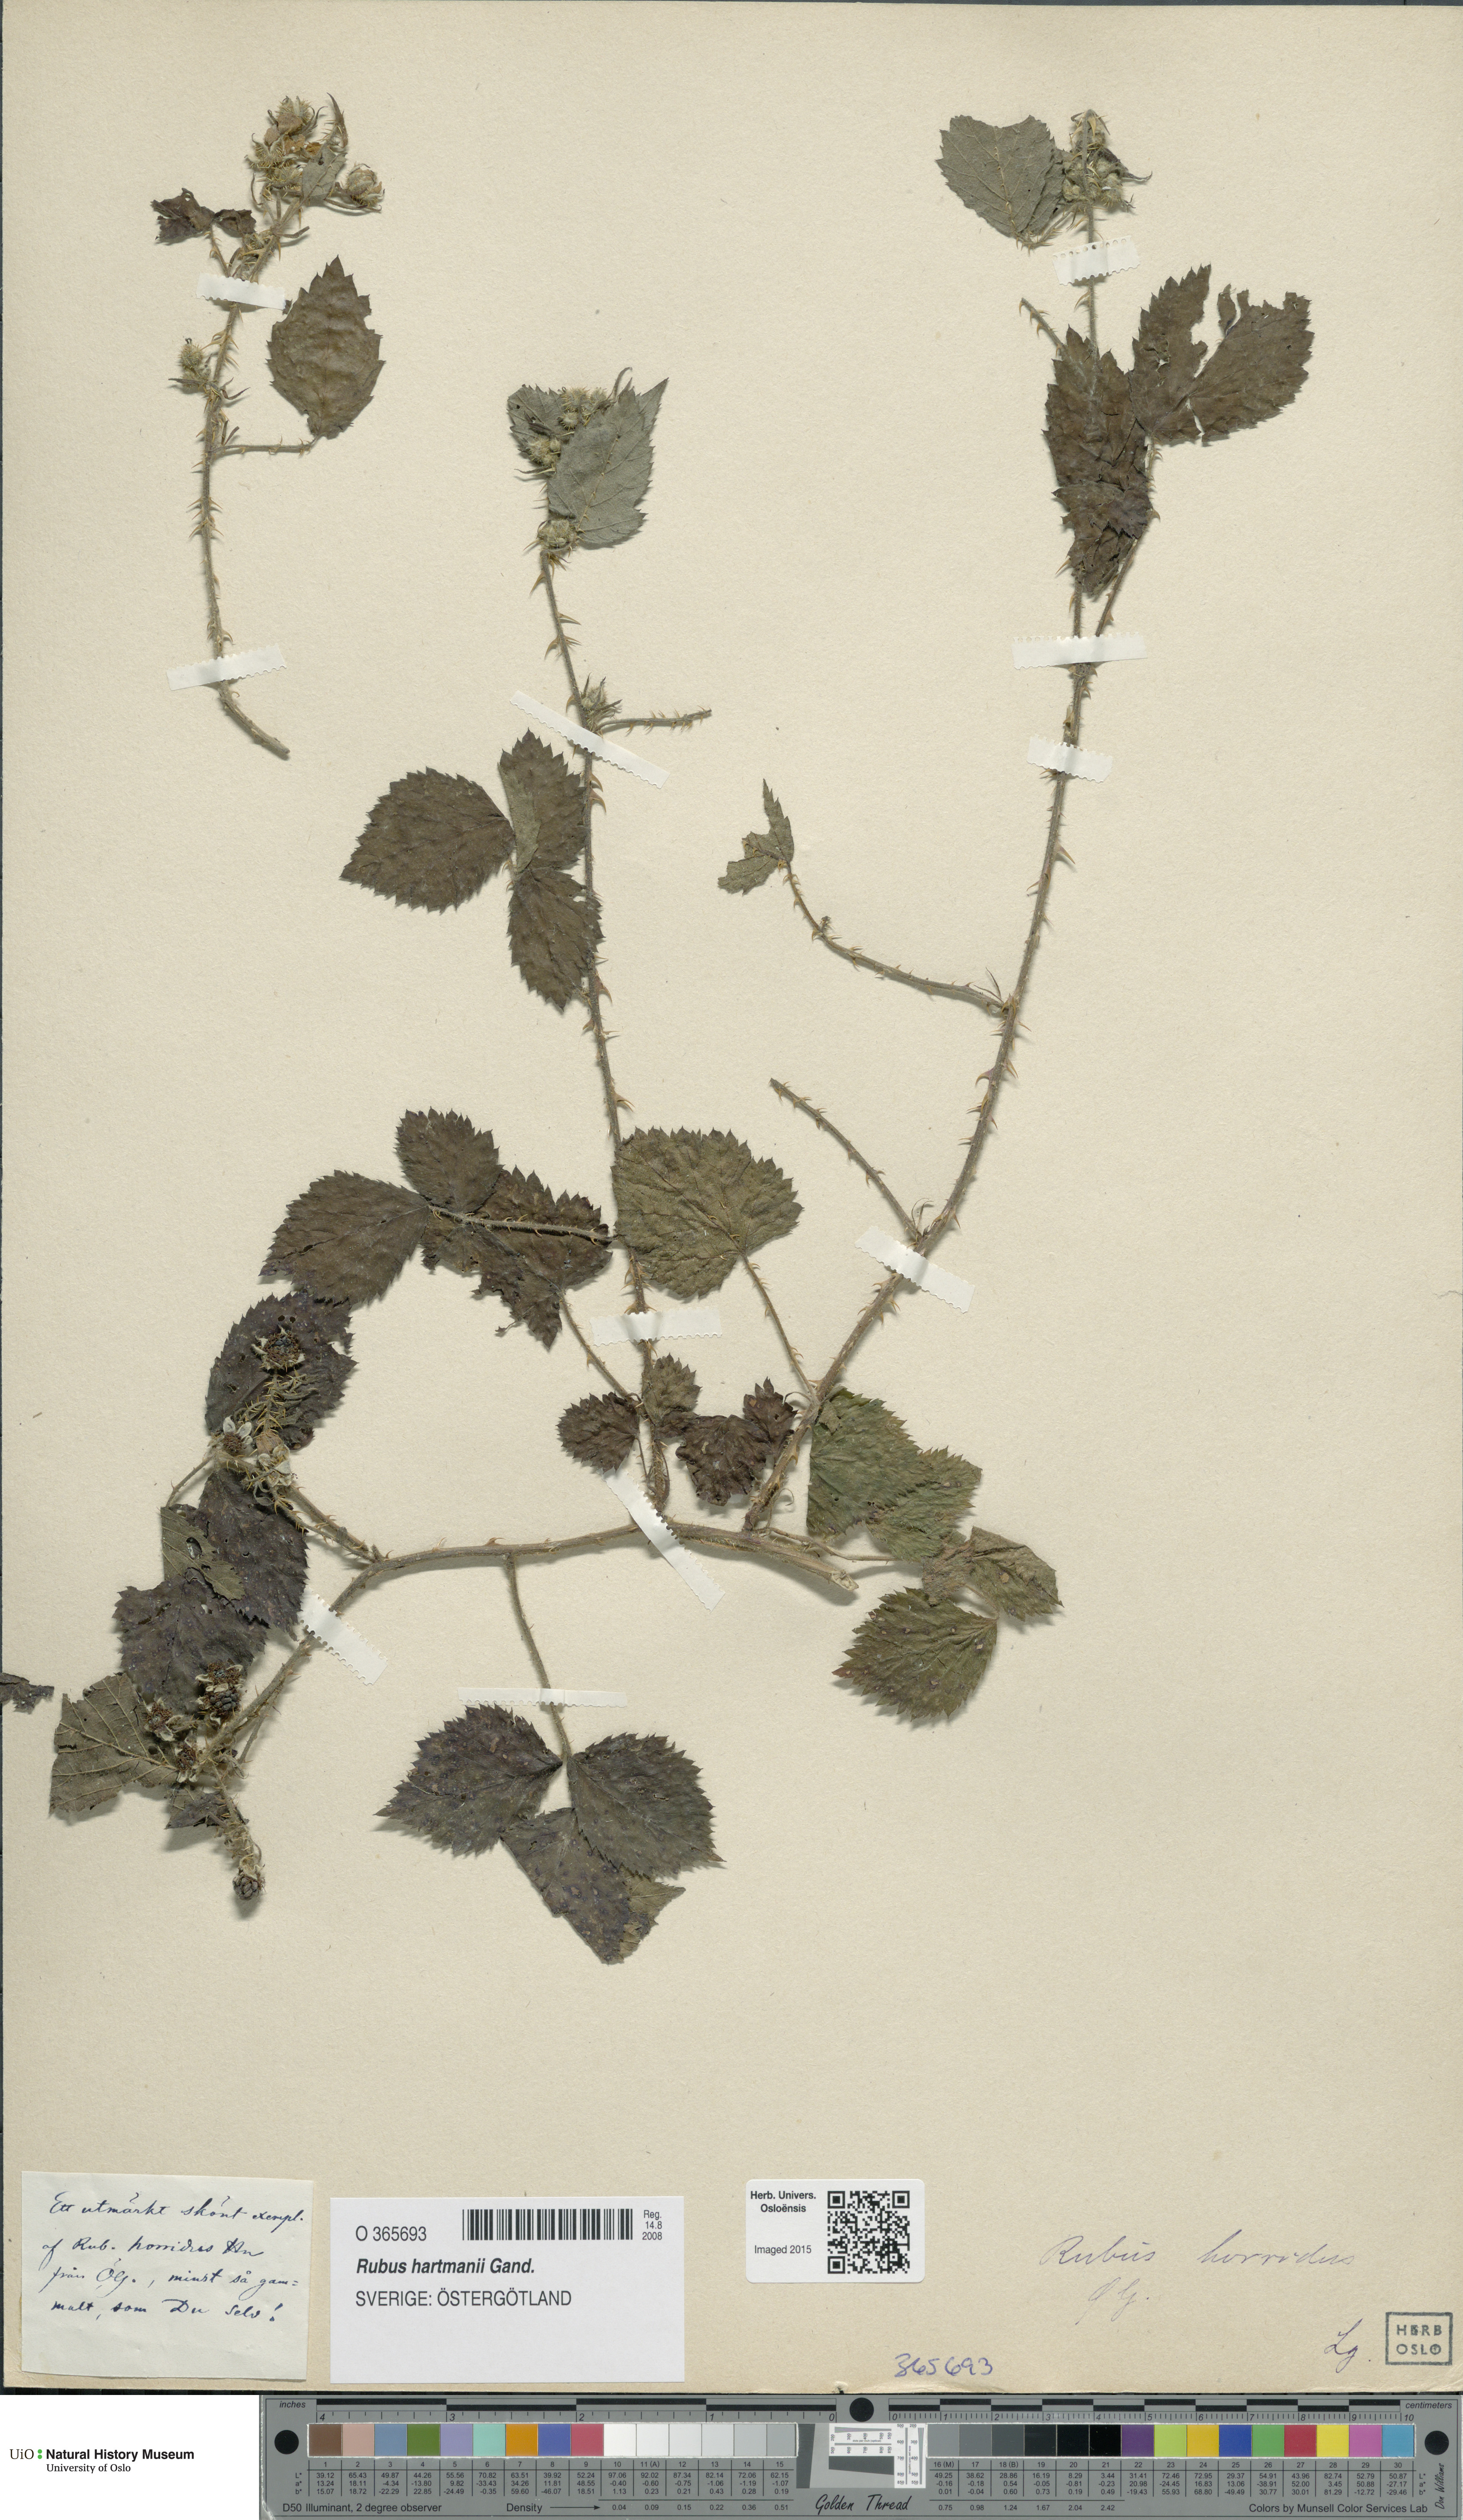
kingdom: Plantae
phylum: Tracheophyta
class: Magnoliopsida
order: Rosales
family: Rosaceae
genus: Rubus
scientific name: Rubus hartmanii
